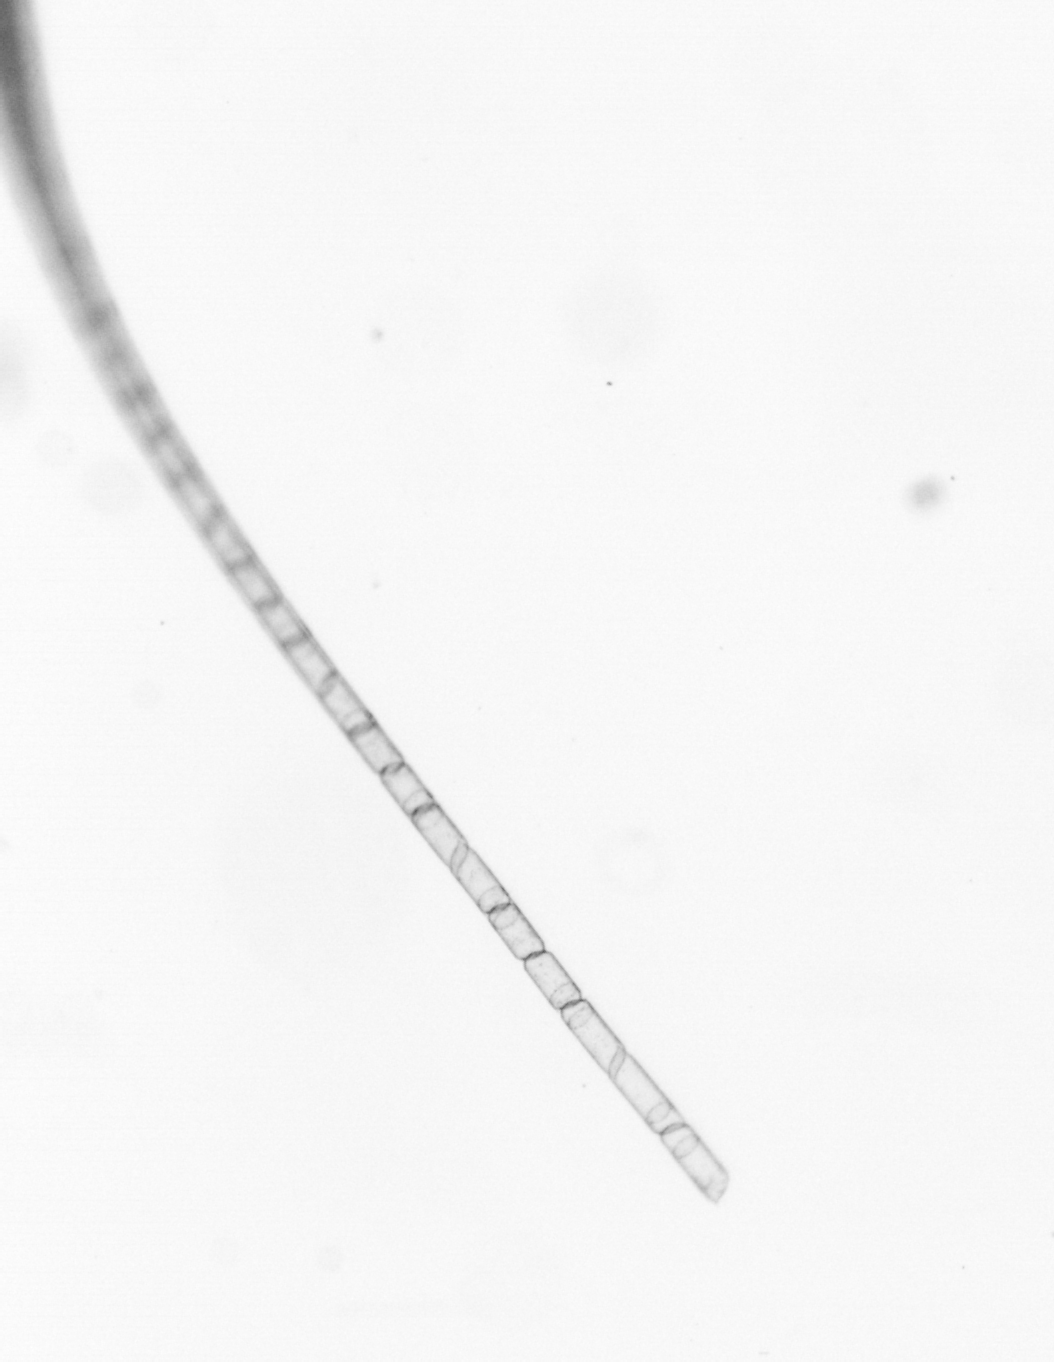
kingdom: Chromista
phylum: Ochrophyta
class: Bacillariophyceae
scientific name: Bacillariophyceae
